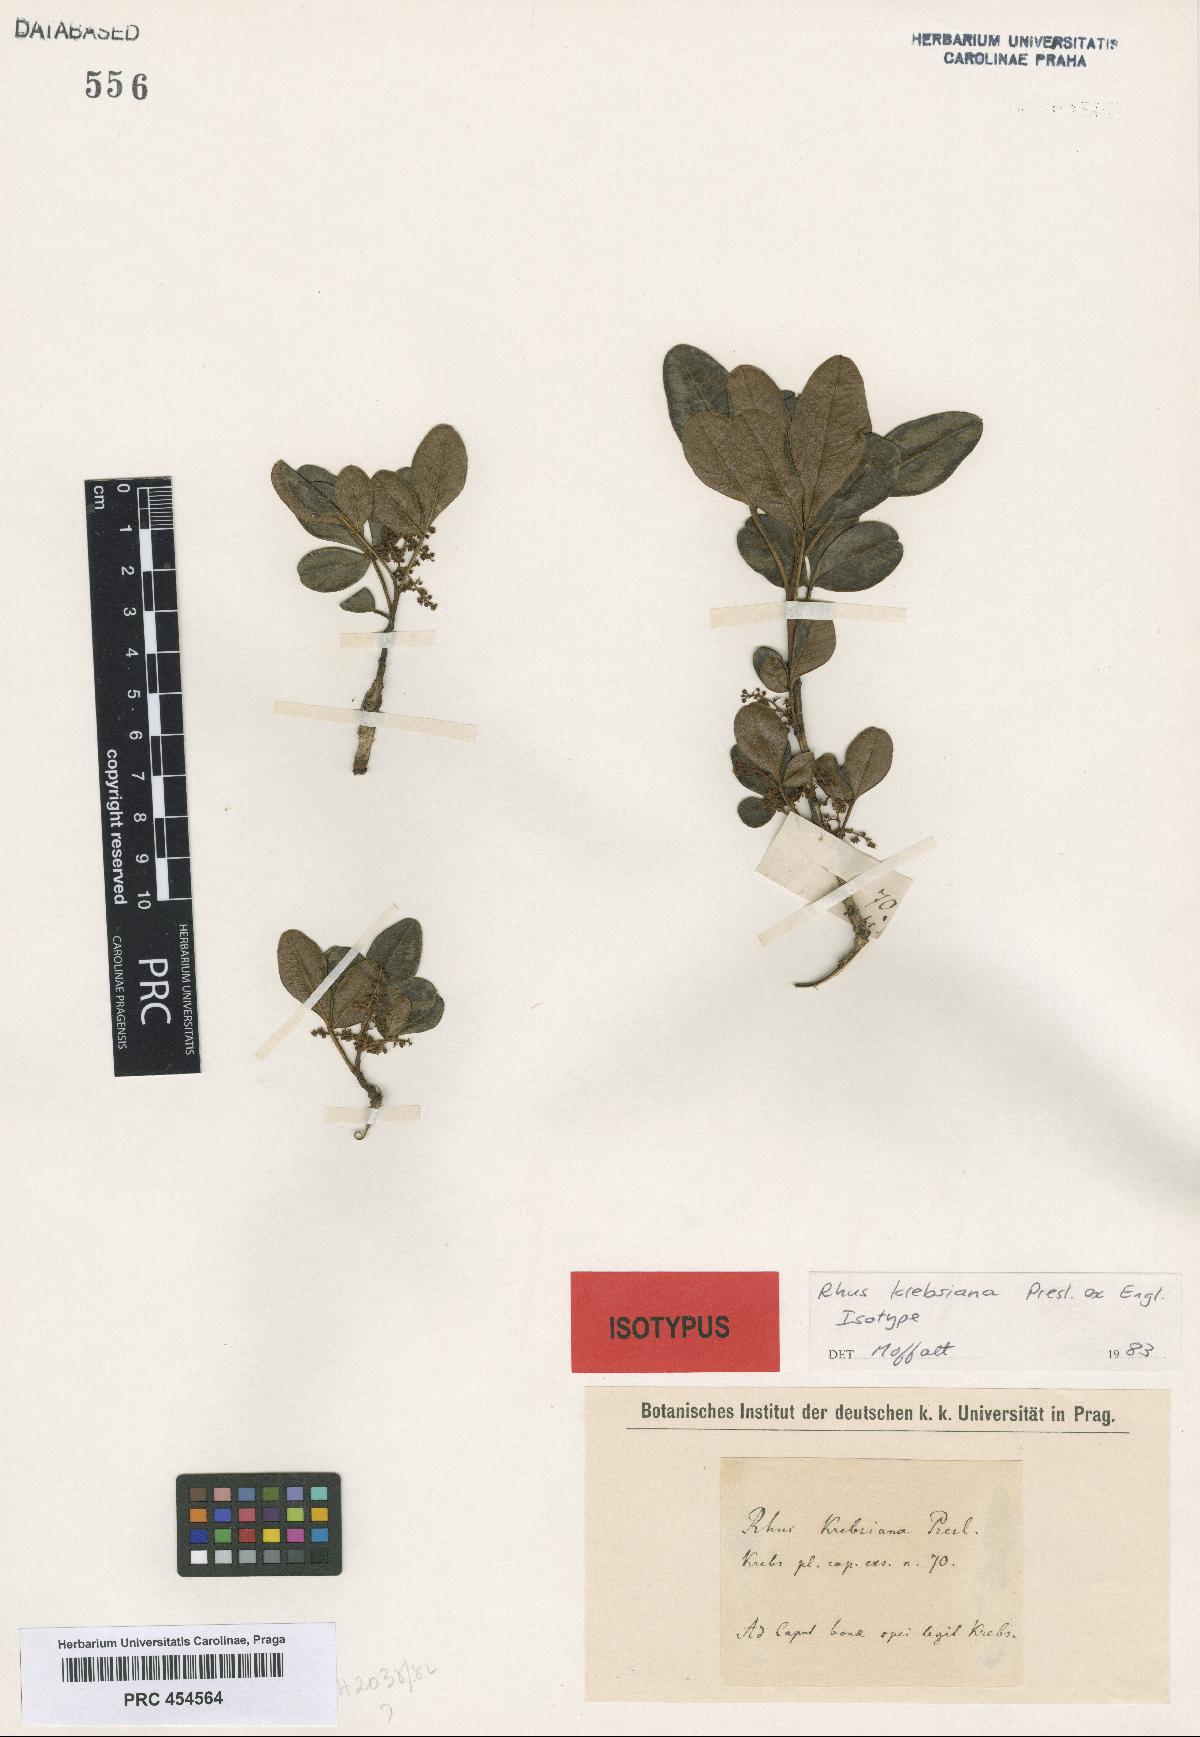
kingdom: Plantae
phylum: Tracheophyta
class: Magnoliopsida
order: Sapindales
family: Anacardiaceae
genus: Searsia
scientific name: Searsia krebsiana
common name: False sour currant
